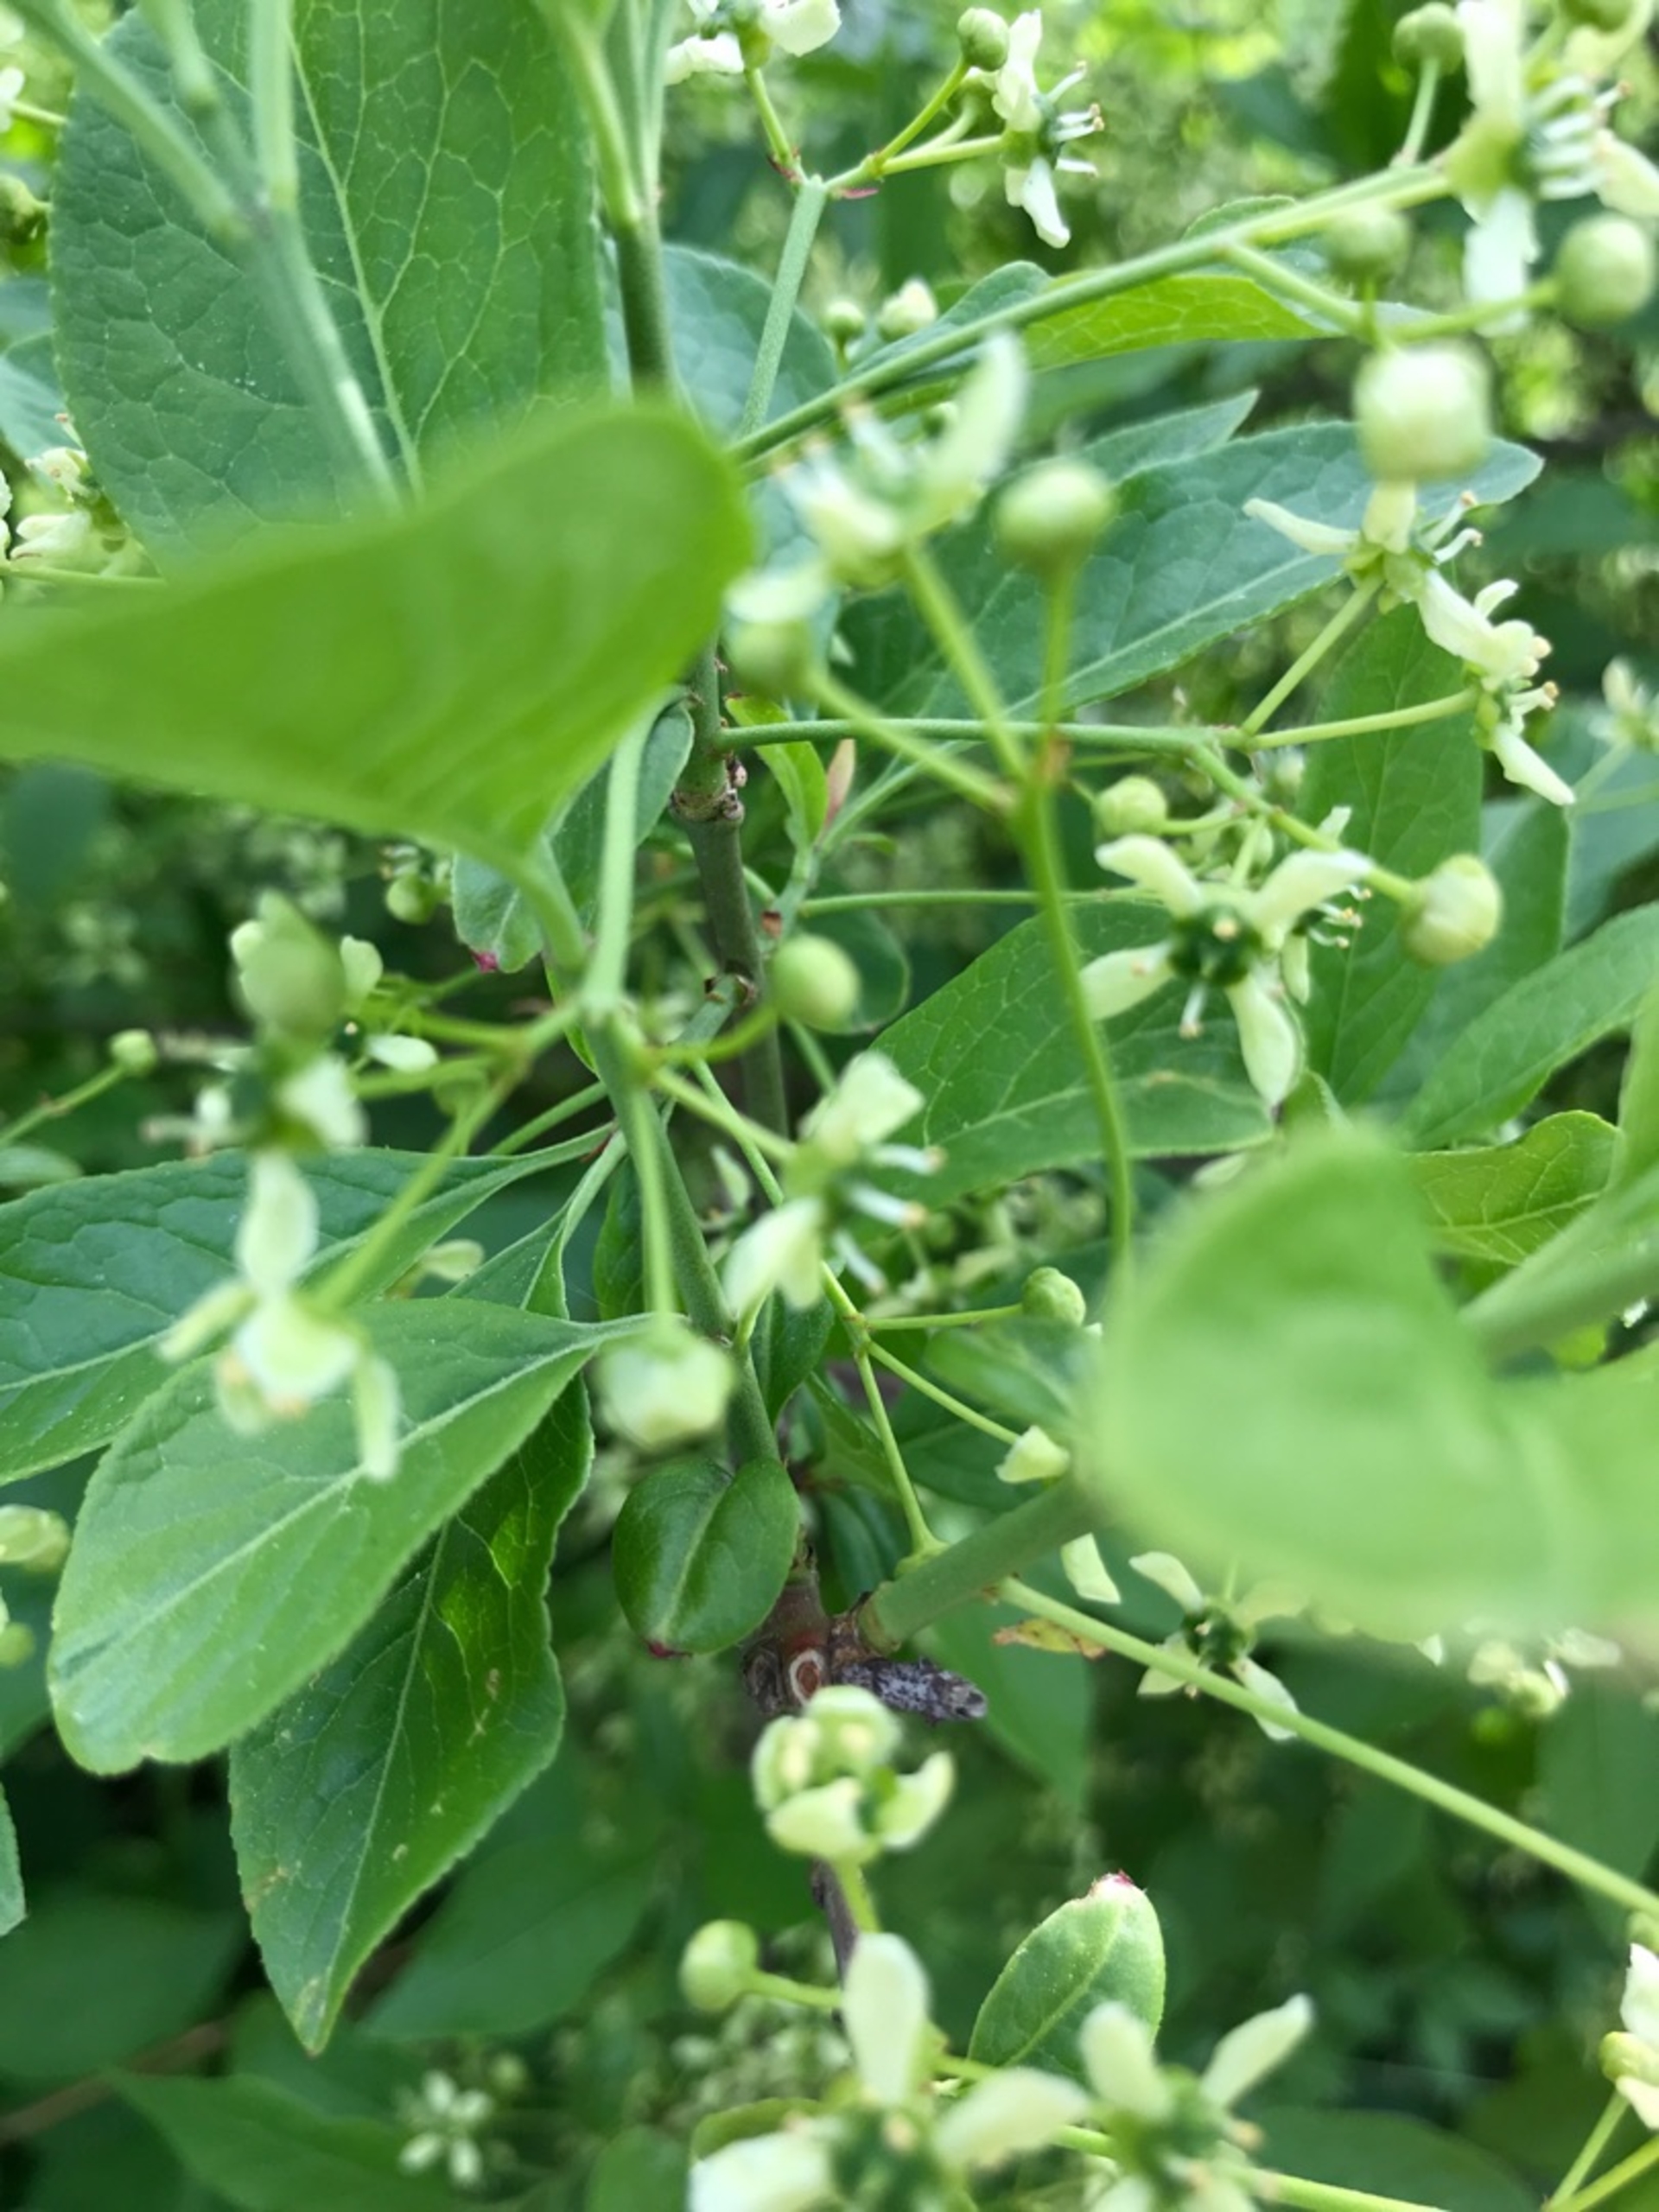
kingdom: Plantae
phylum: Tracheophyta
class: Magnoliopsida
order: Celastrales
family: Celastraceae
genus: Euonymus
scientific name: Euonymus europaeus
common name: Benved
